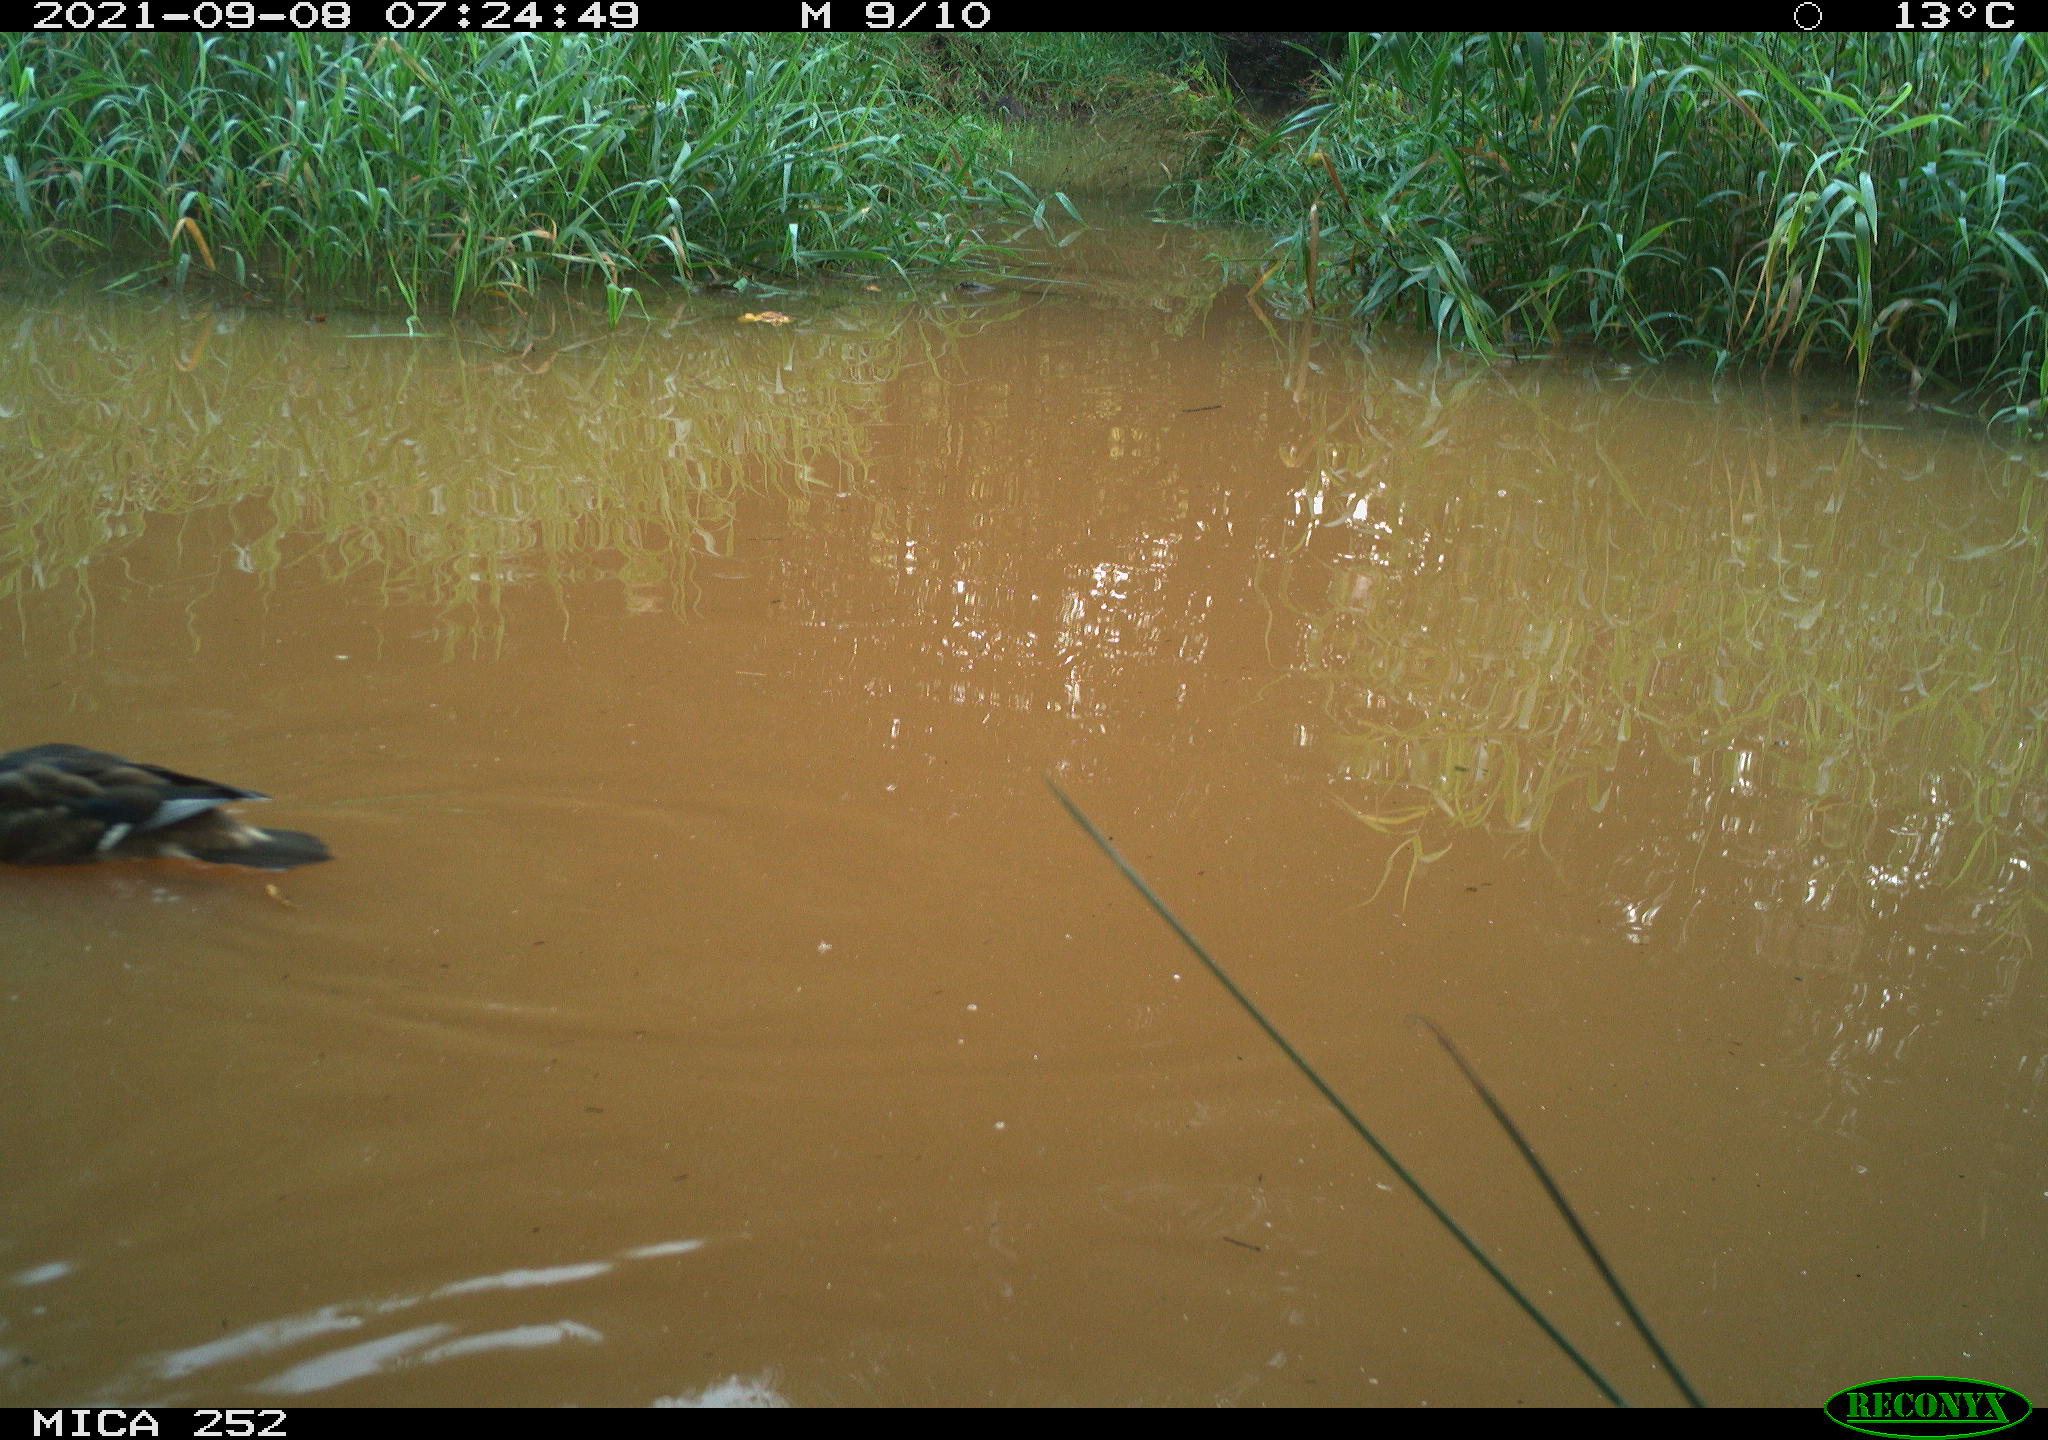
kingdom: Animalia
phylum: Chordata
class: Aves
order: Anseriformes
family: Anatidae
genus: Anas
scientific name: Anas platyrhynchos
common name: Mallard
